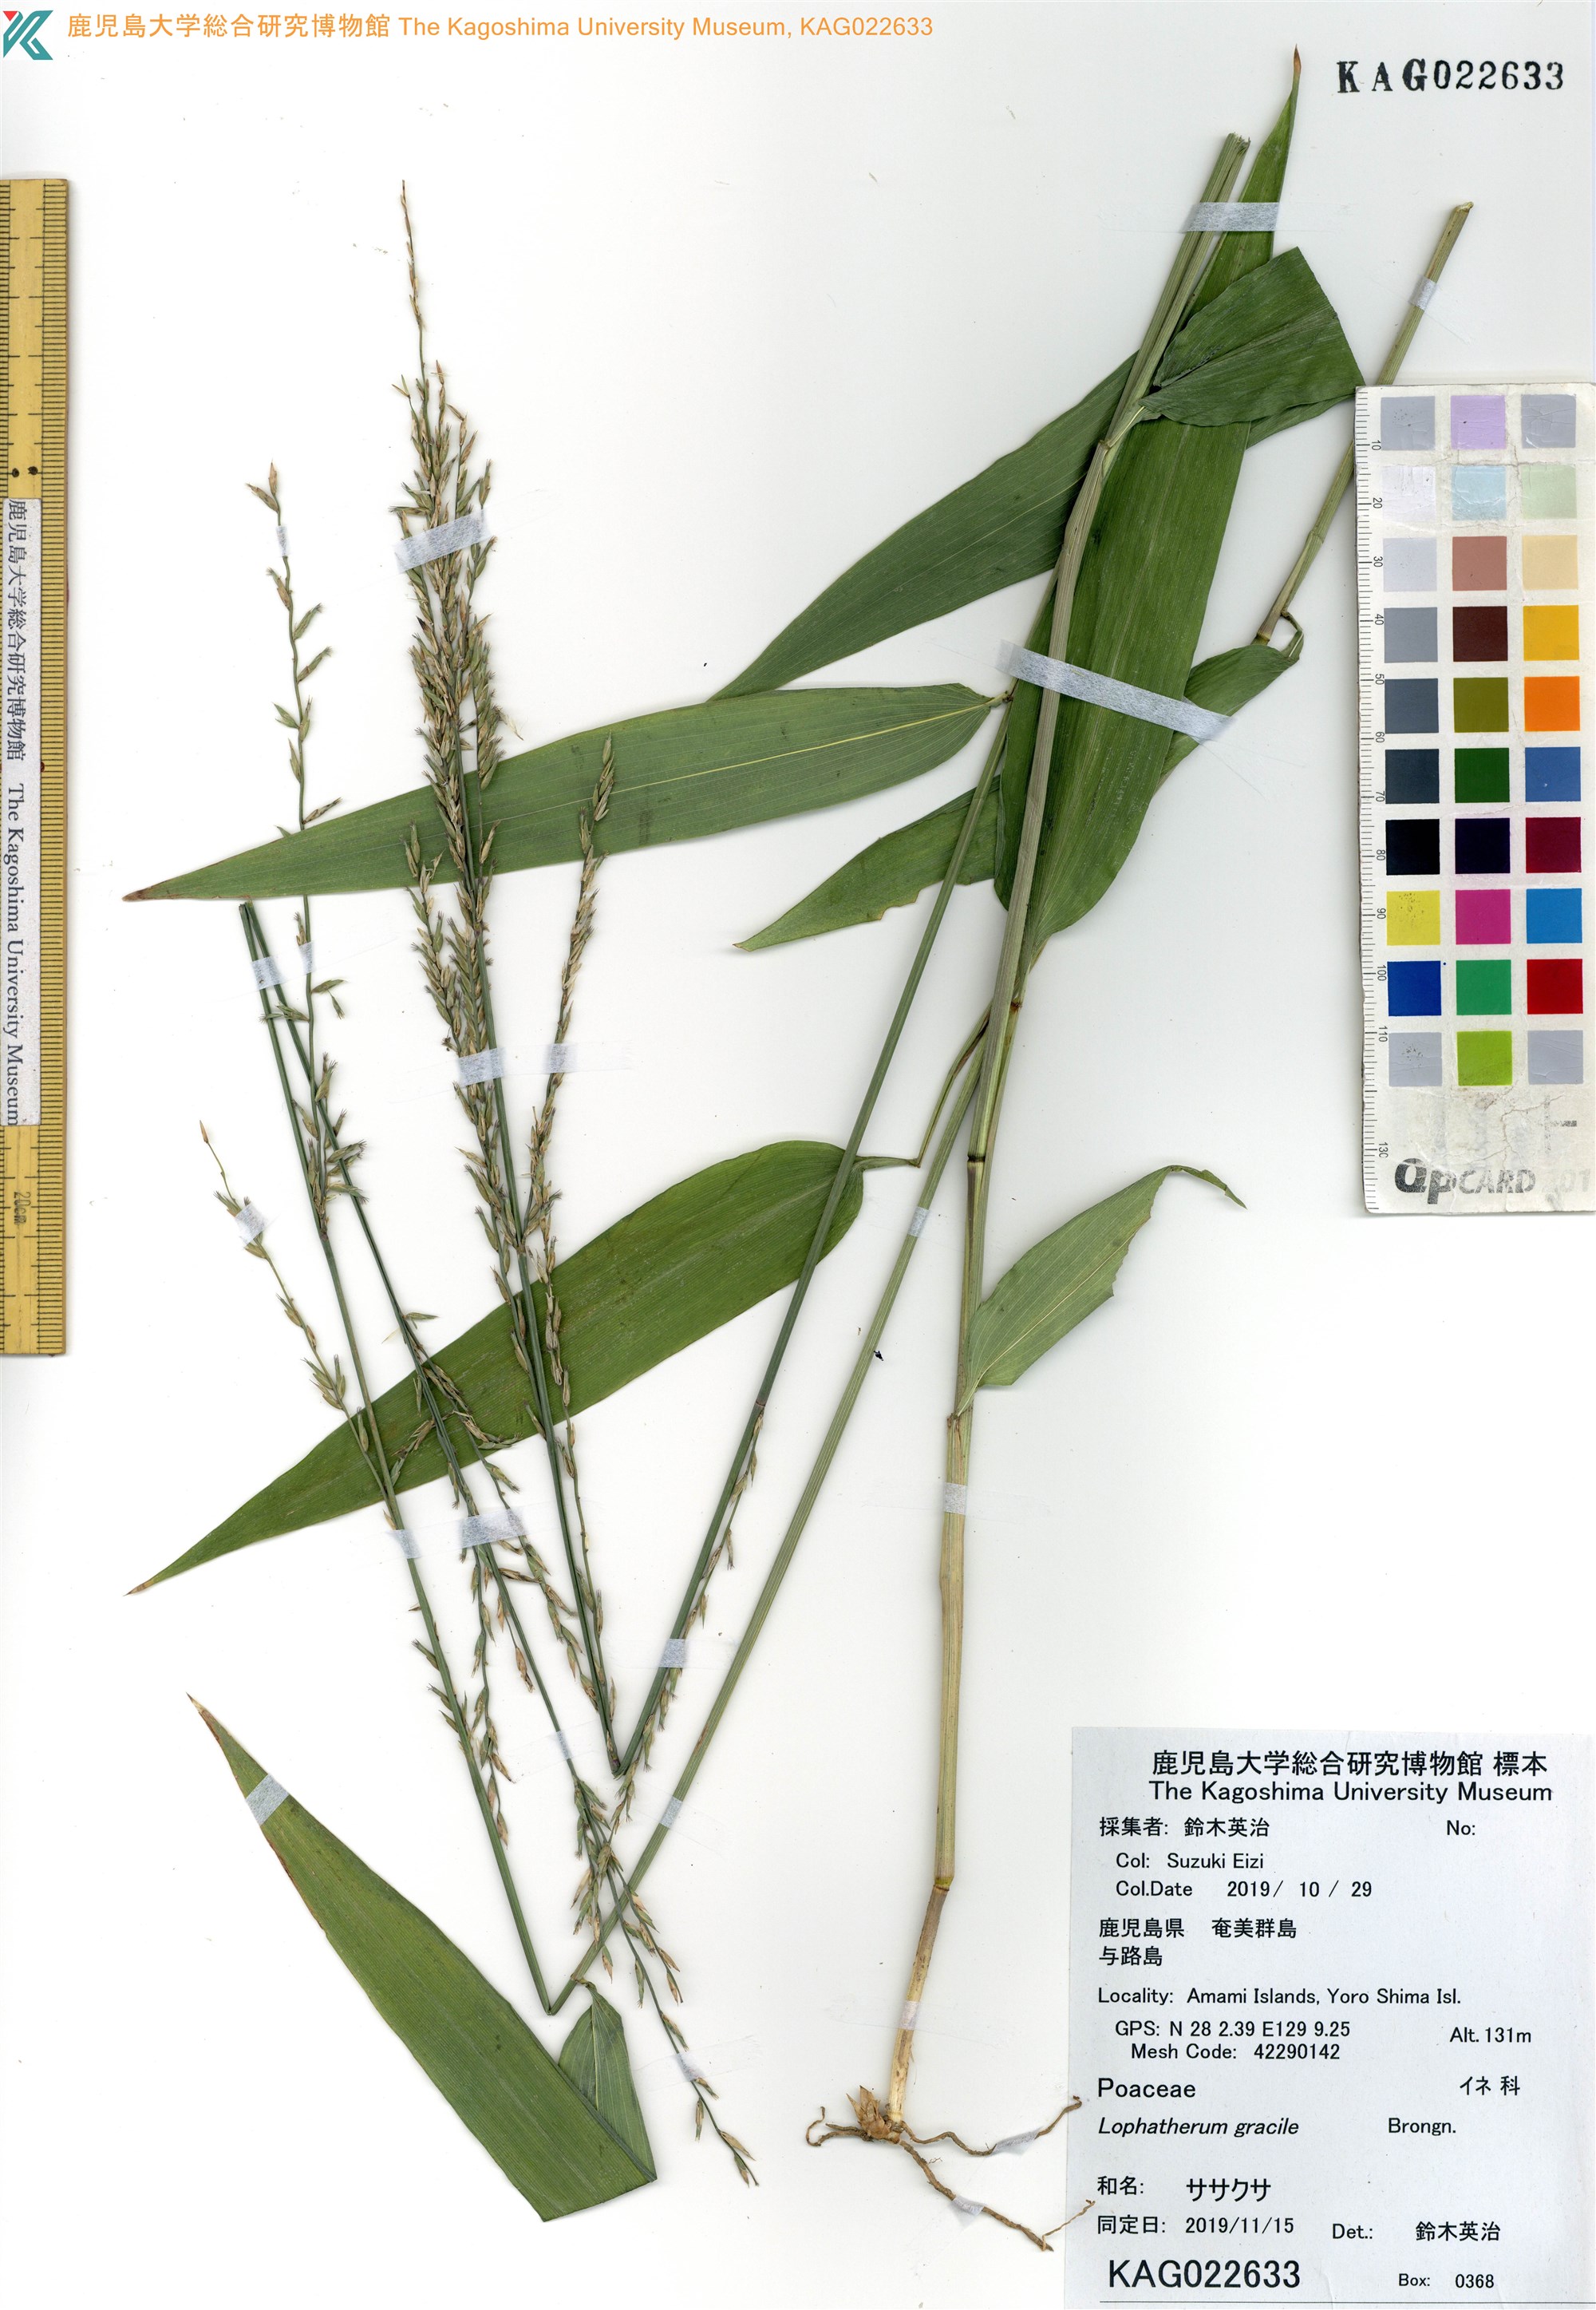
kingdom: Plantae
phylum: Tracheophyta
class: Liliopsida
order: Poales
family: Poaceae
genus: Lophatherum
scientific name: Lophatherum gracile
